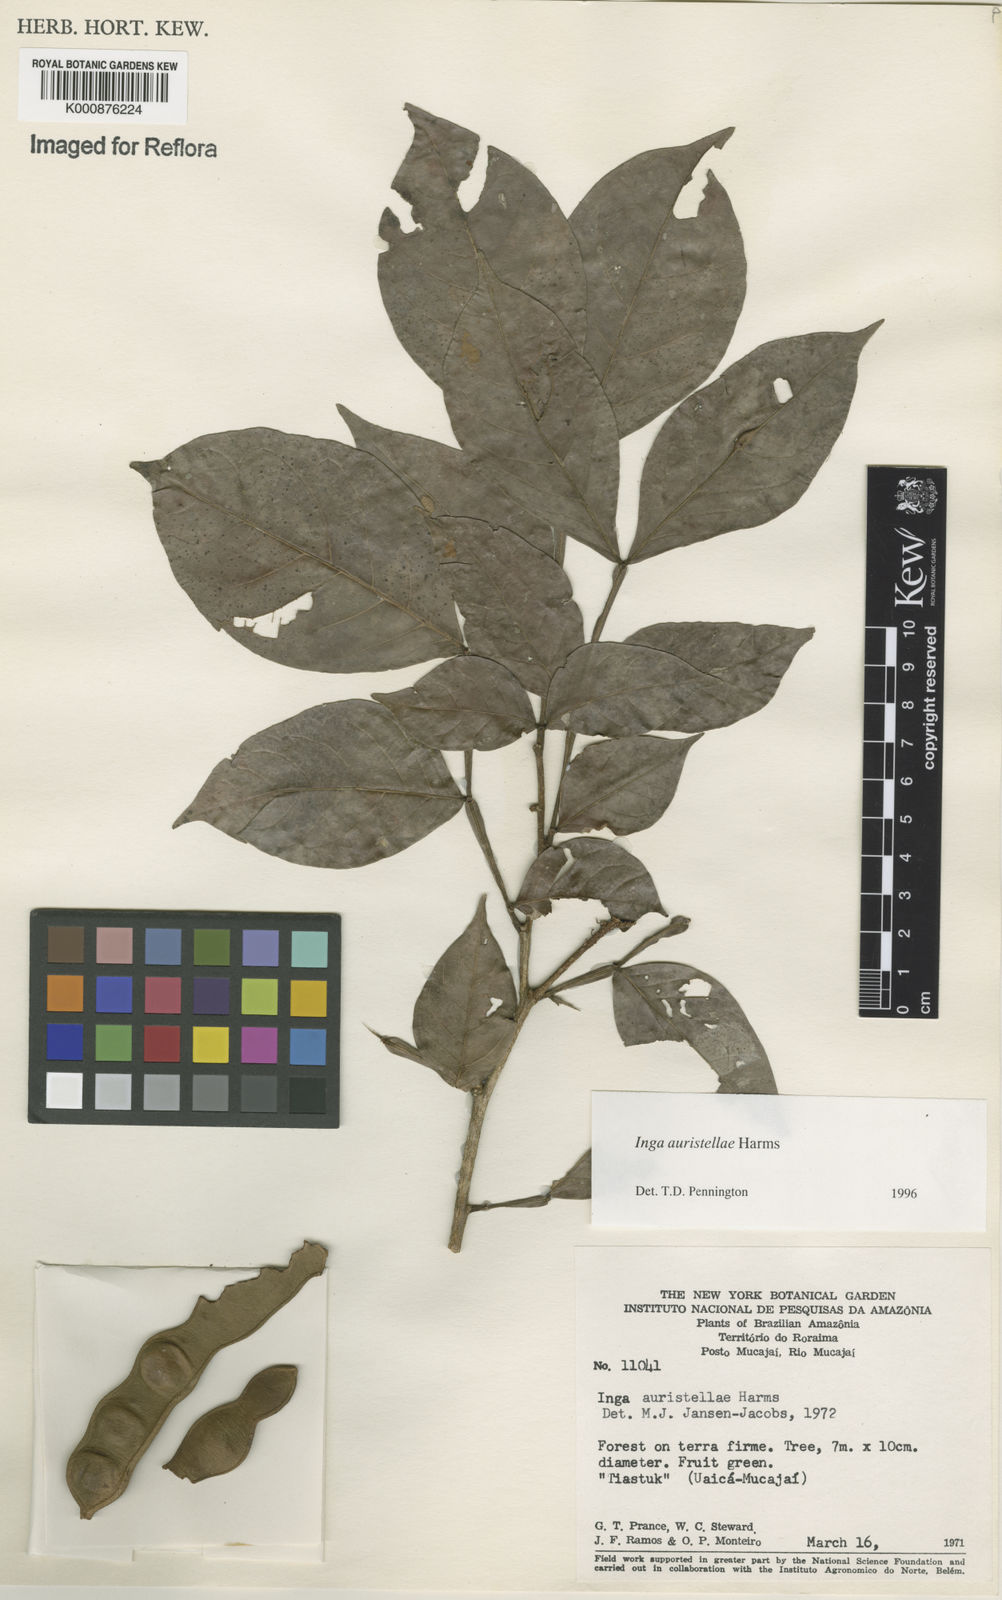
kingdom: Plantae
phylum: Tracheophyta
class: Magnoliopsida
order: Fabales
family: Fabaceae
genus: Inga
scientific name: Inga auristellae
